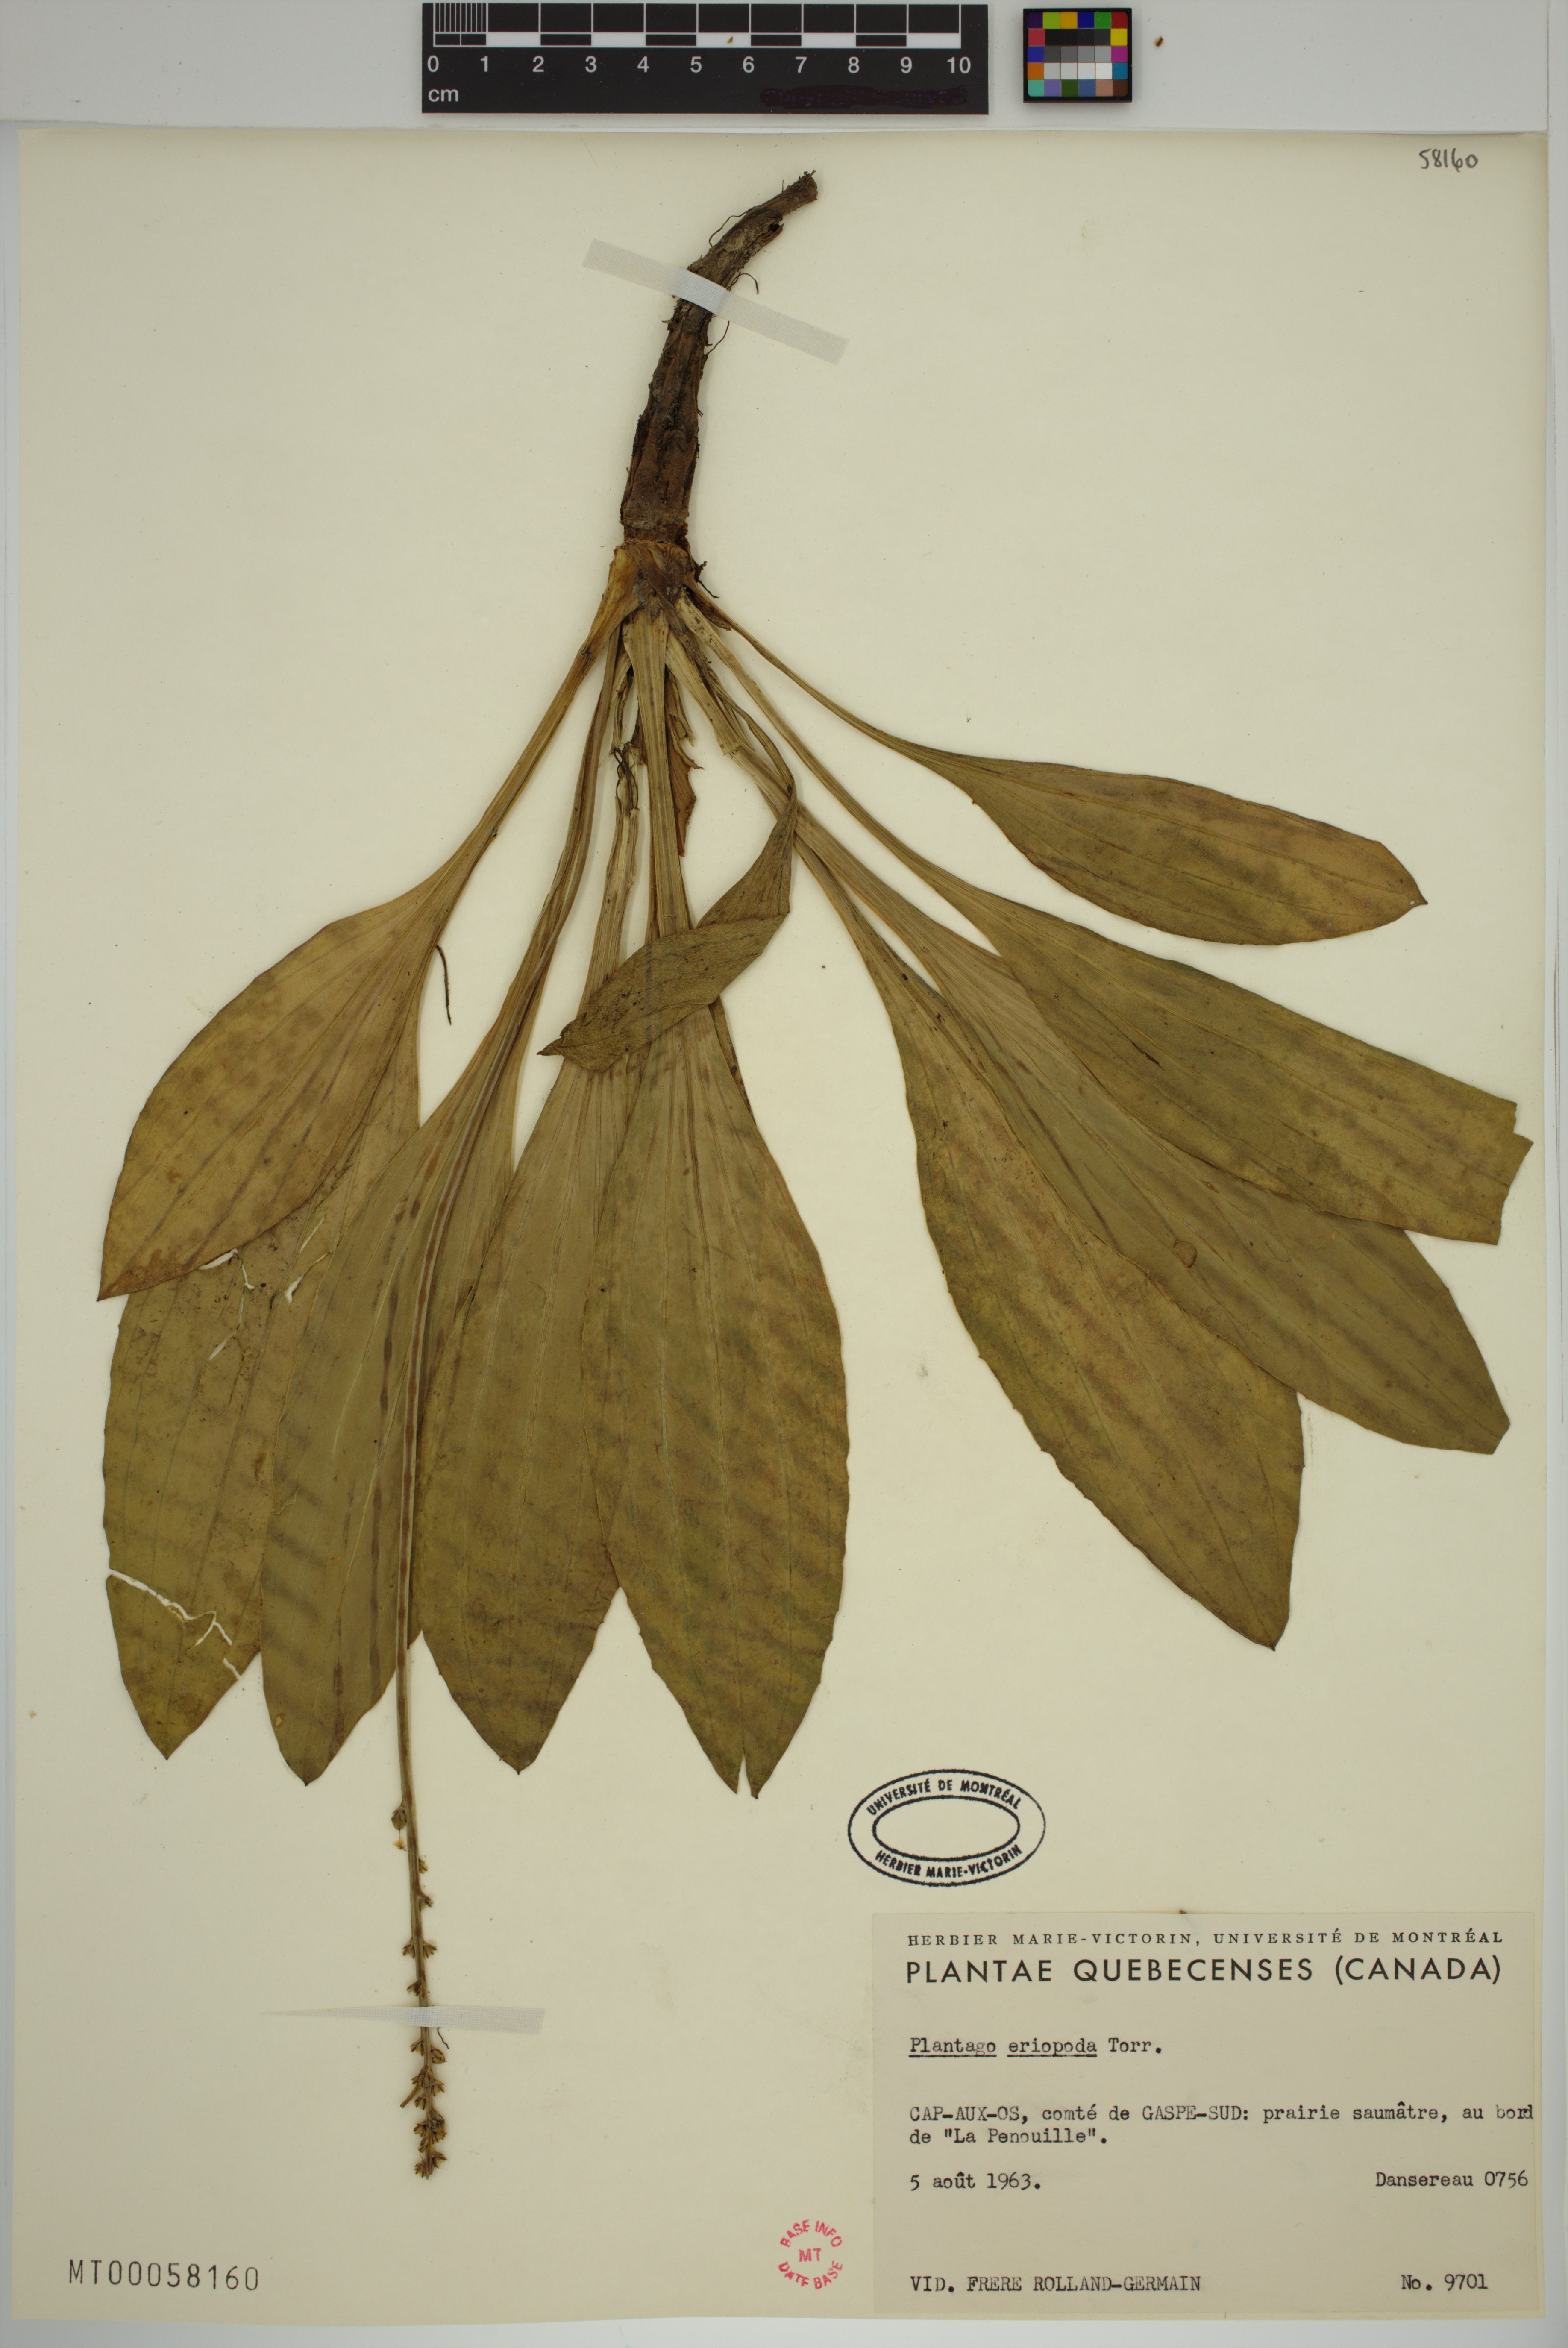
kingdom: Plantae
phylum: Tracheophyta
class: Magnoliopsida
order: Lamiales
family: Plantaginaceae
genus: Plantago
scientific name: Plantago eriopoda
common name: Alkali plantain
